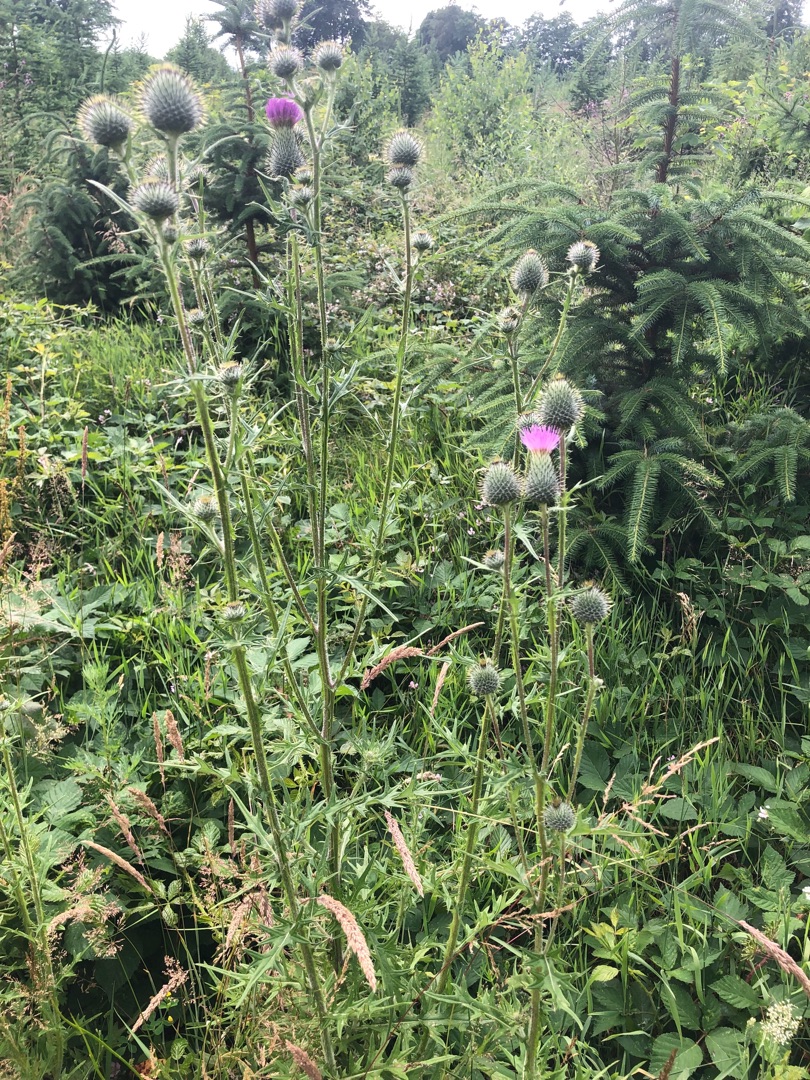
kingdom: Plantae
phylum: Tracheophyta
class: Magnoliopsida
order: Asterales
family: Asteraceae
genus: Cirsium
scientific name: Cirsium vulgare
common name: Horse-tidsel
